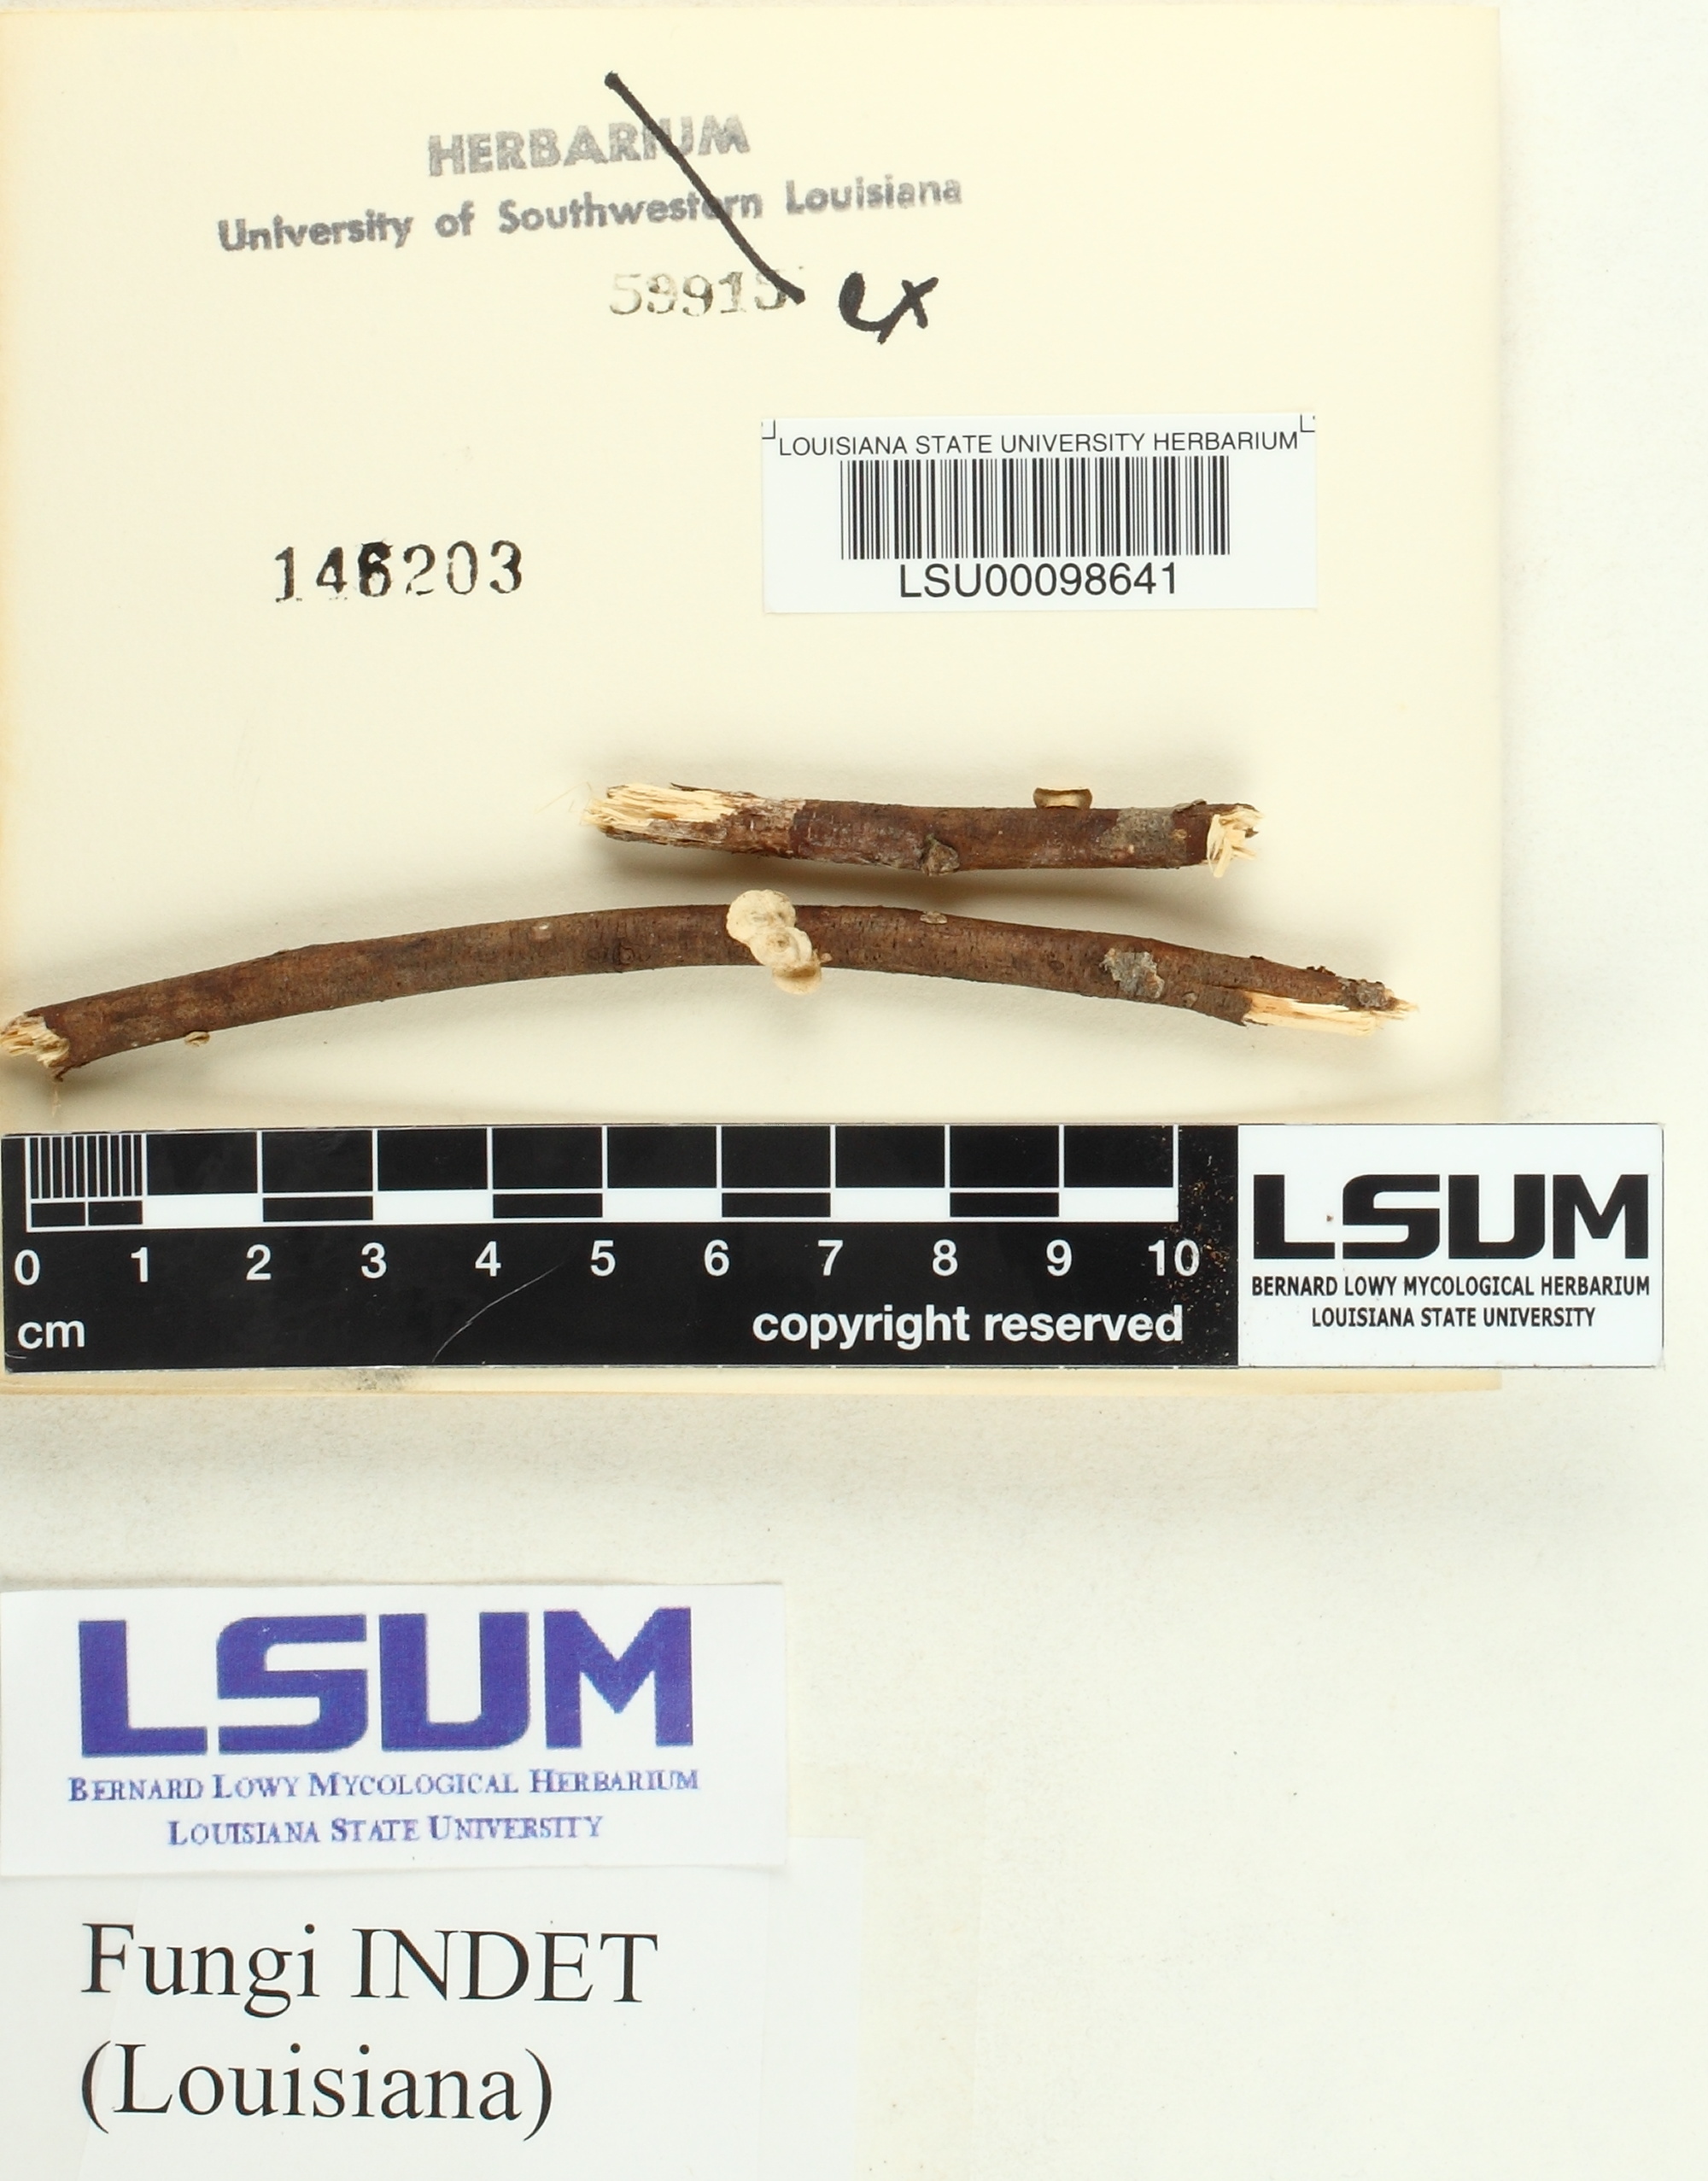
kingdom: Fungi
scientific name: Fungi
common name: Fungi
